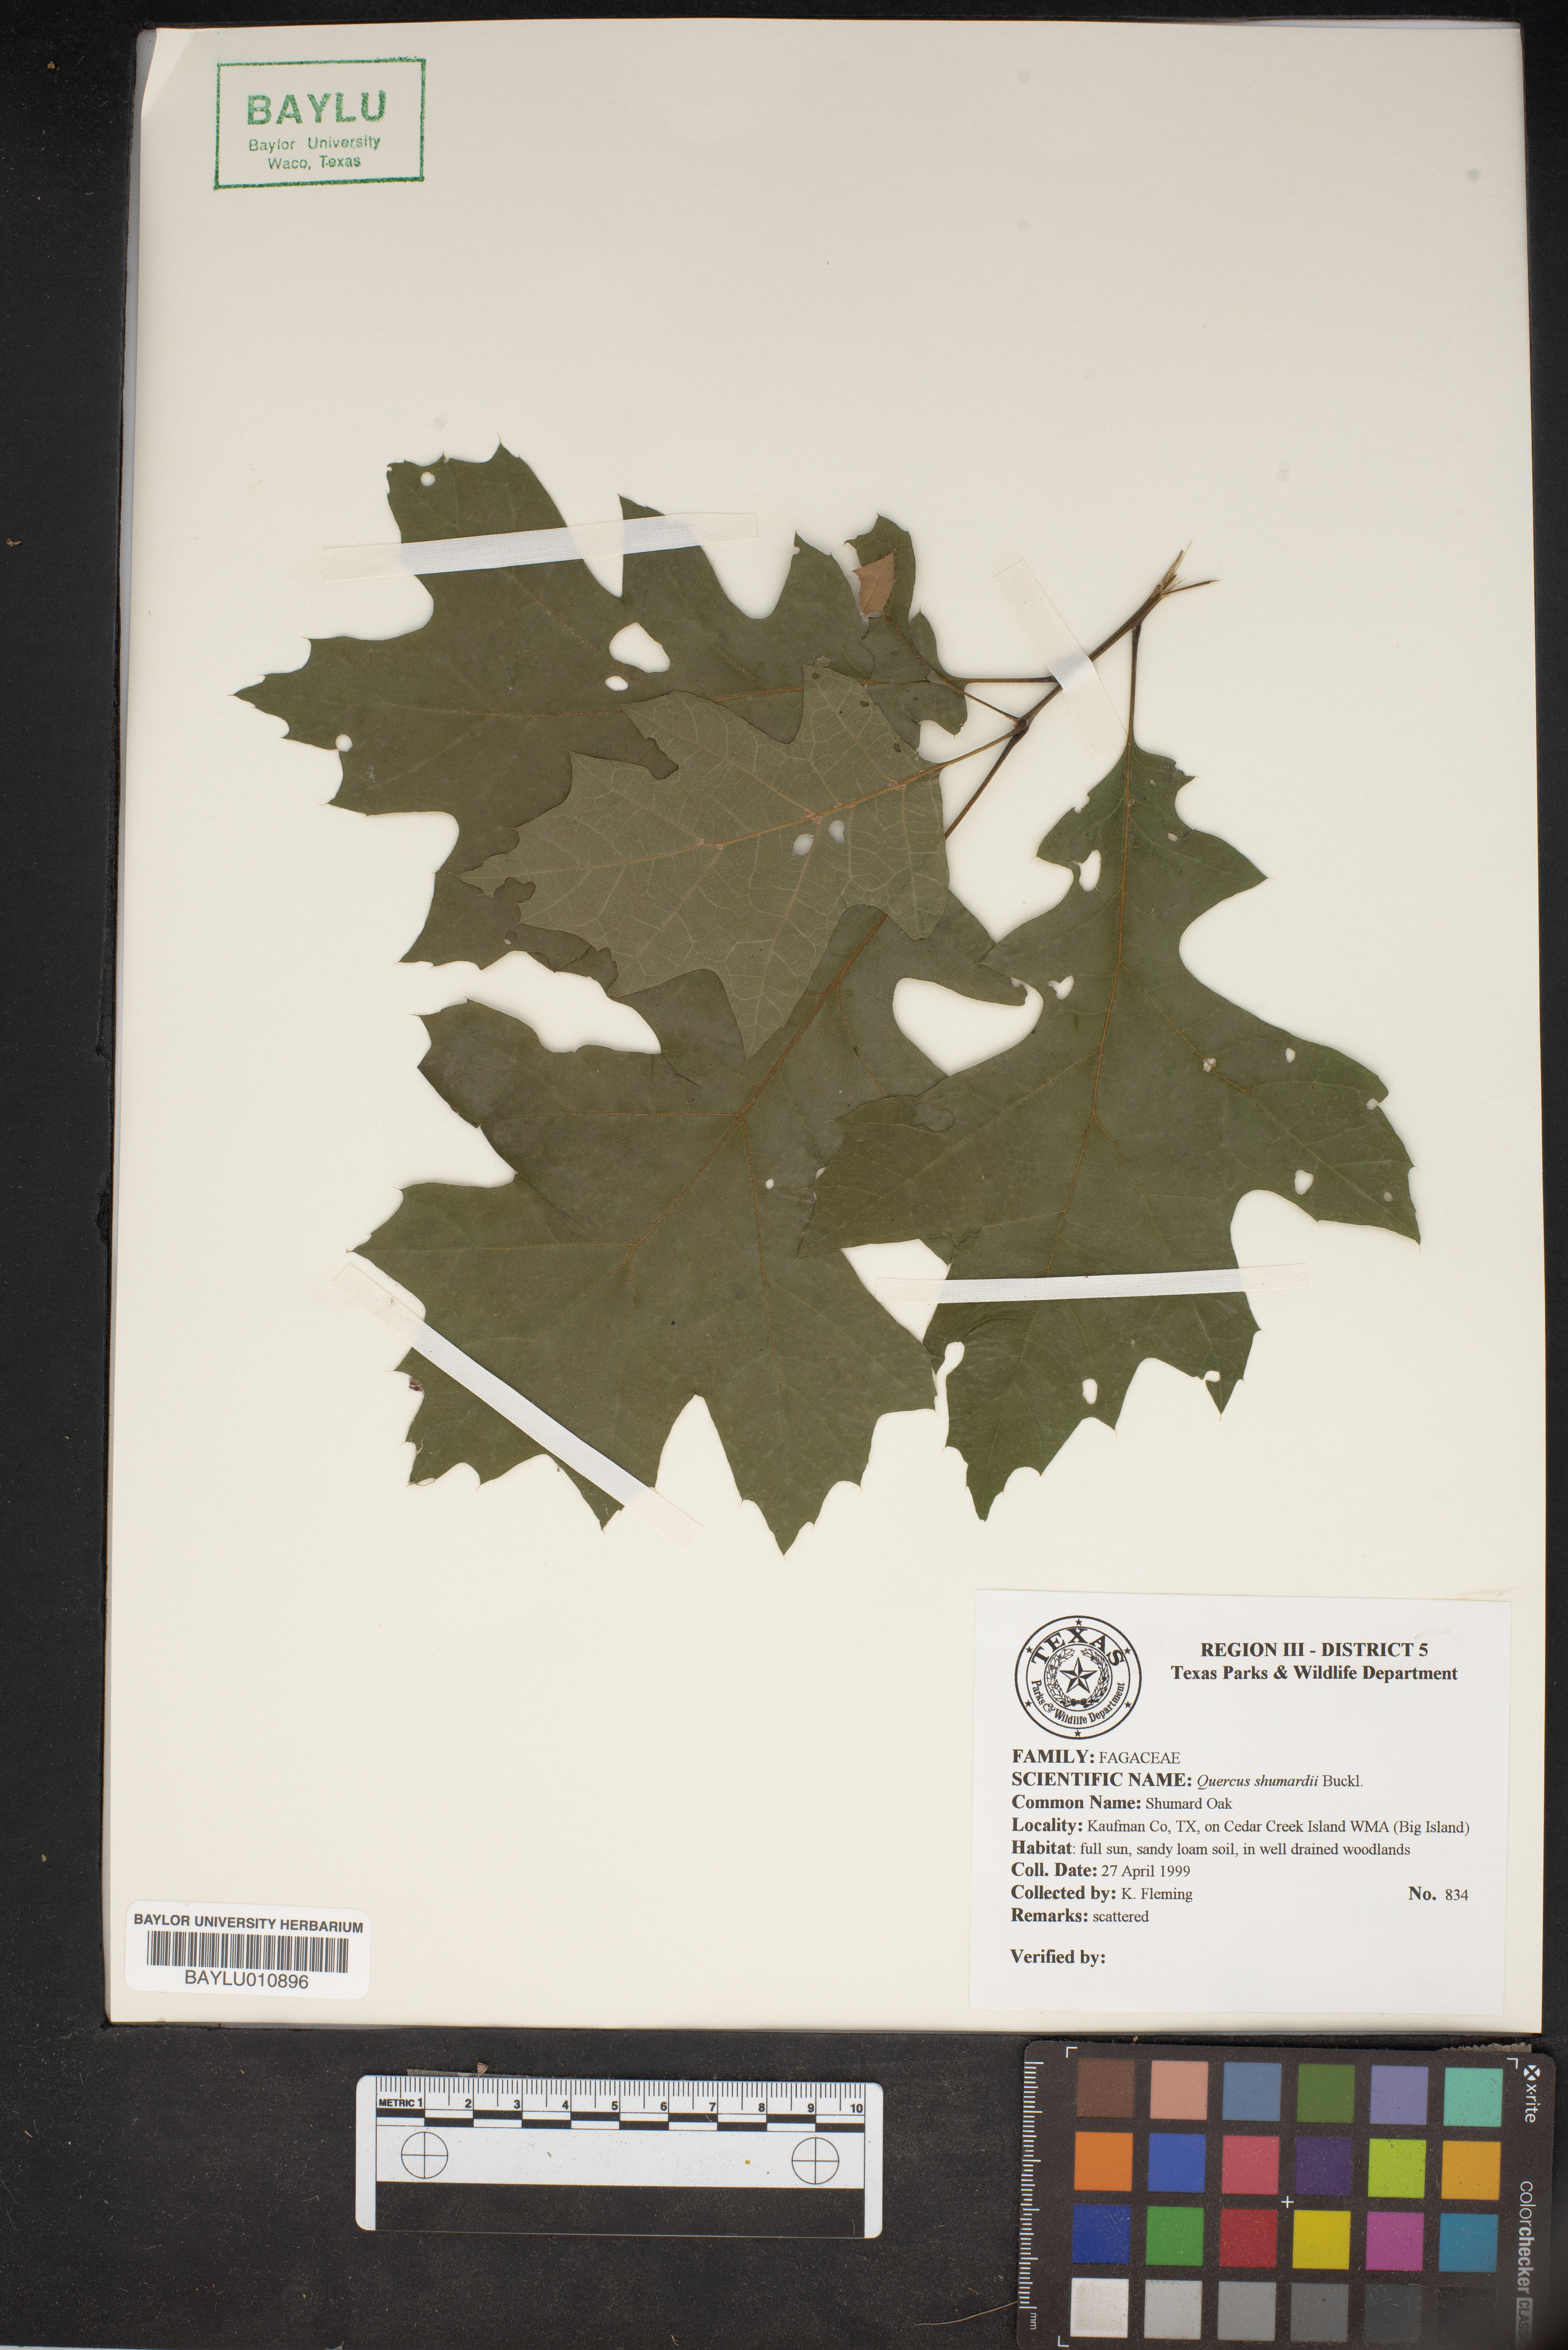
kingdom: Plantae
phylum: Tracheophyta
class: Magnoliopsida
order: Fagales
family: Fagaceae
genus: Quercus
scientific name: Quercus shumardii
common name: Shumard oak
